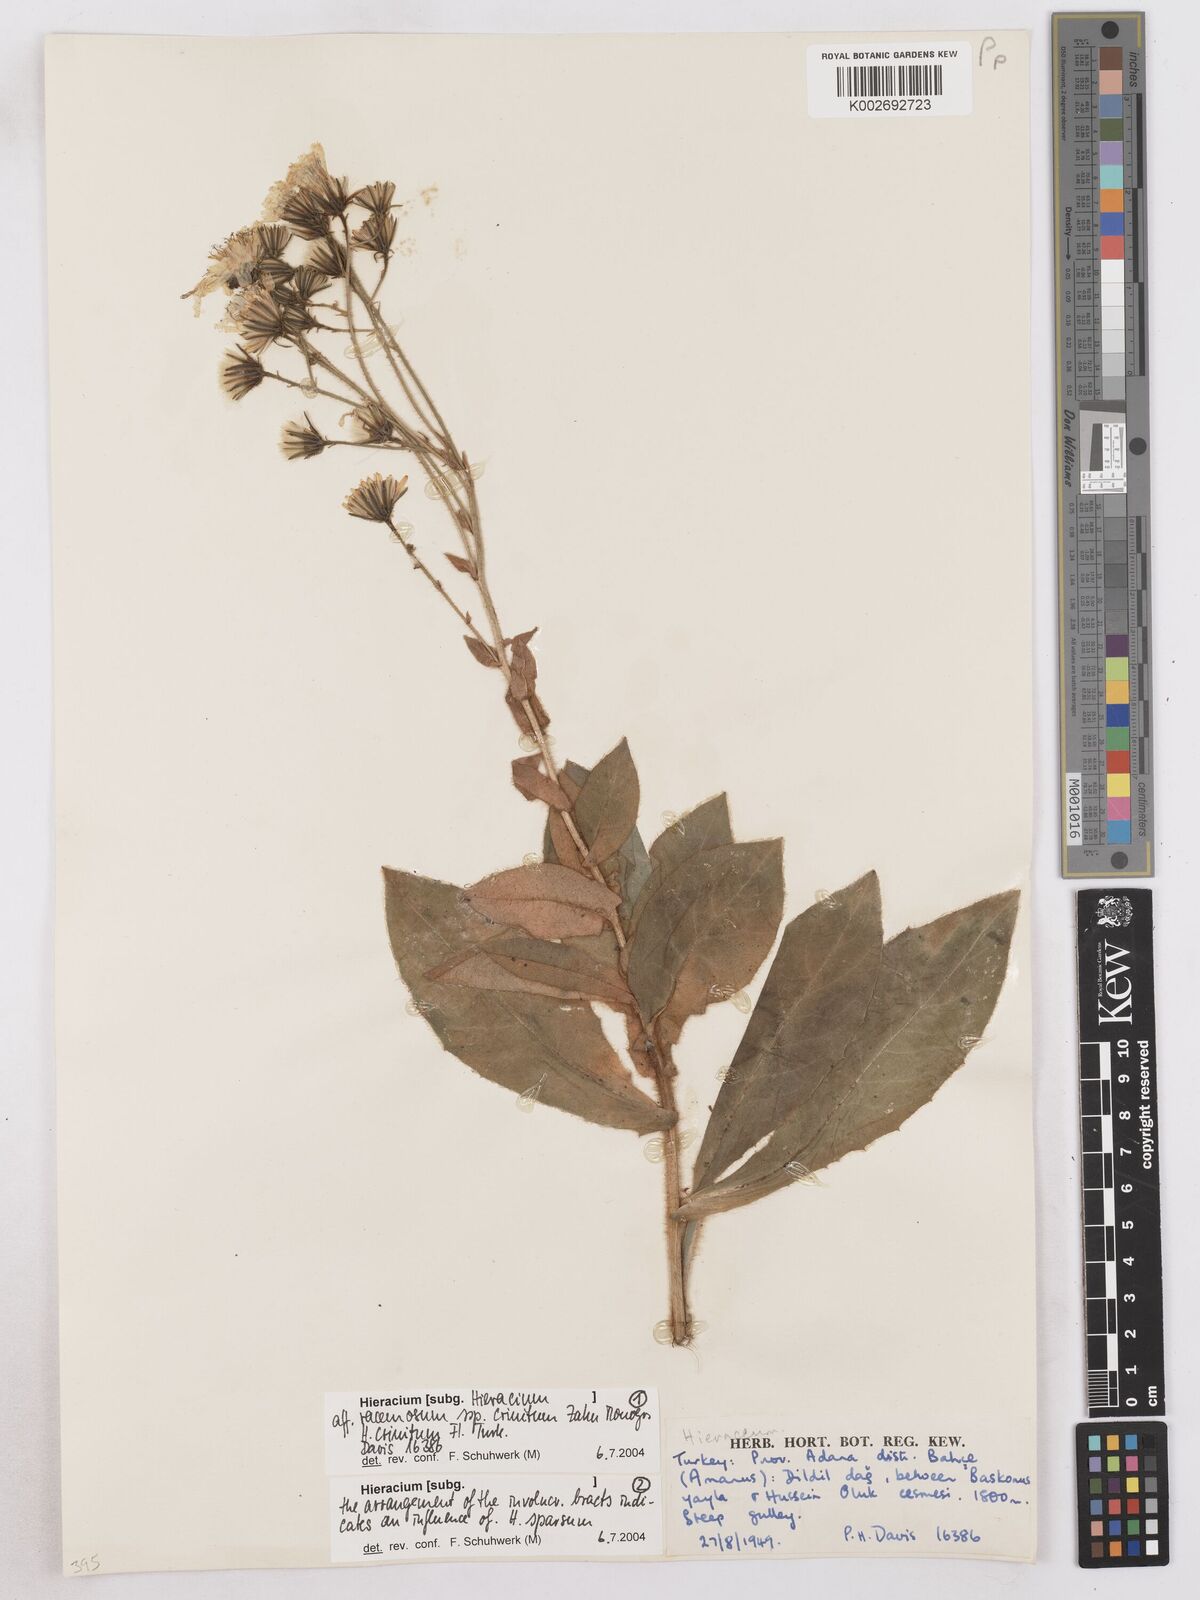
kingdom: Plantae
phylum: Tracheophyta
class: Magnoliopsida
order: Asterales
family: Asteraceae
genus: Hieracium
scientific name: Hieracium racemosum
